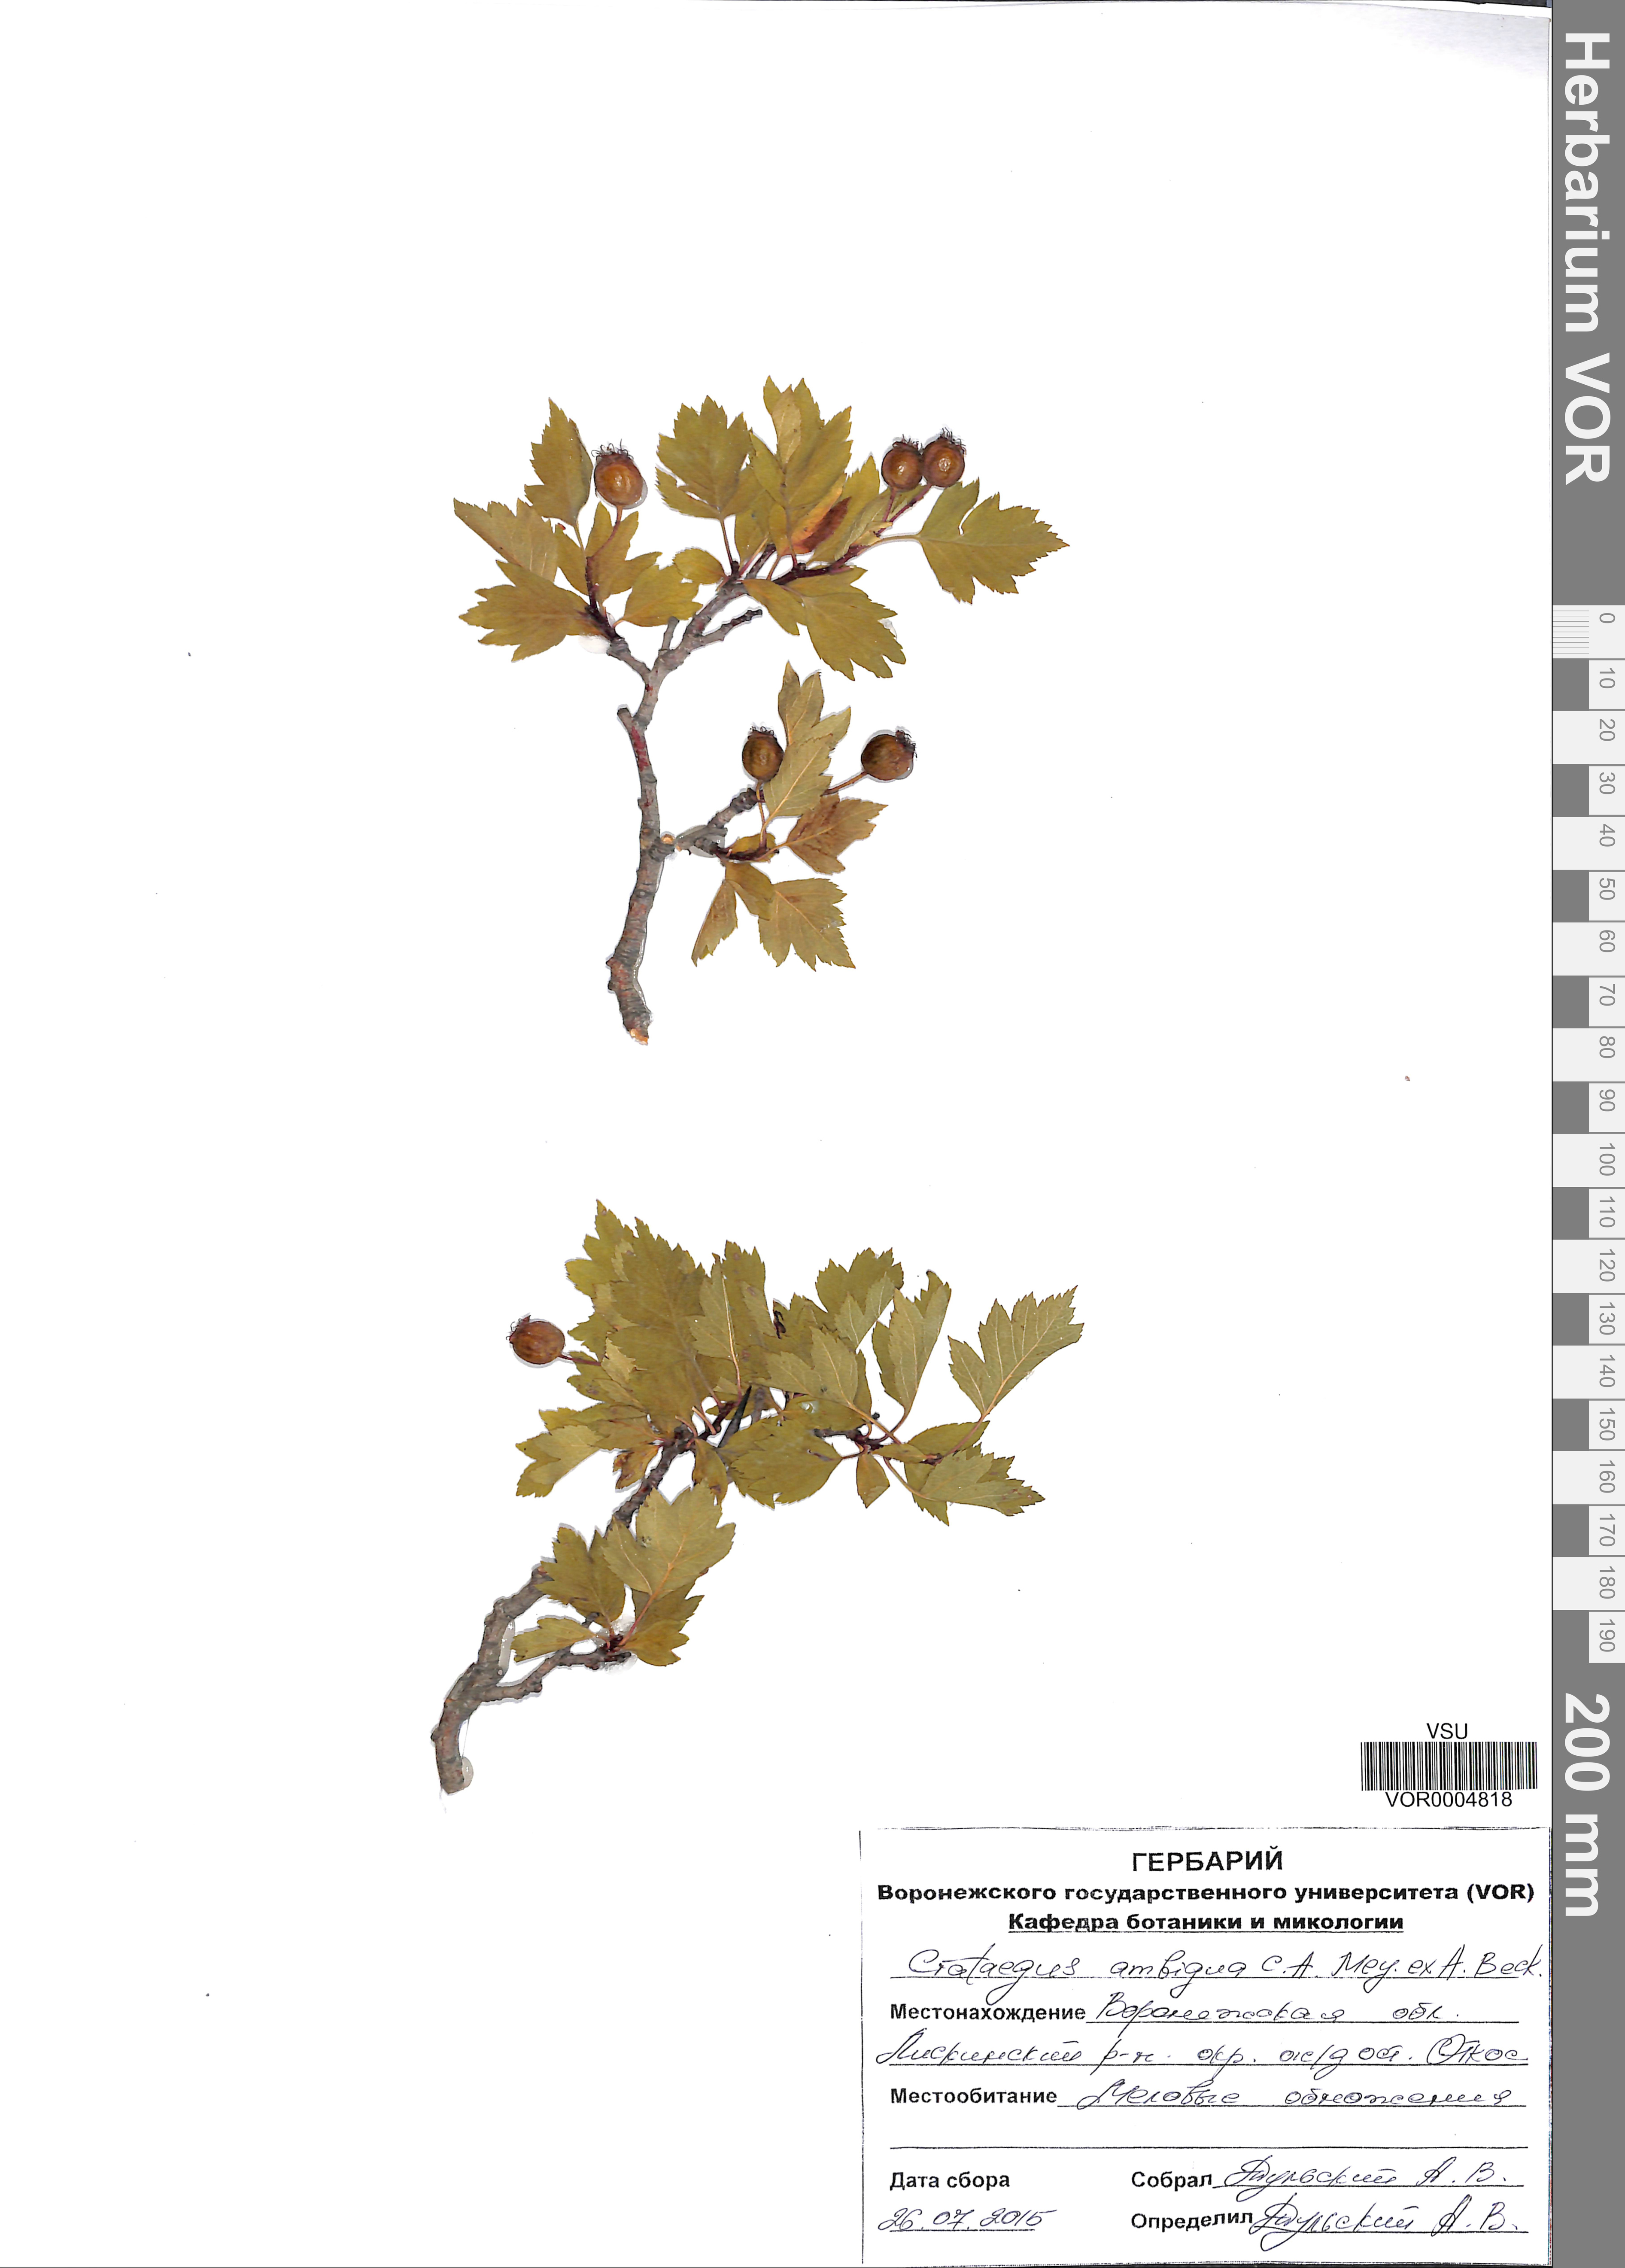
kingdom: Plantae
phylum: Tracheophyta
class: Magnoliopsida
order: Rosales
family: Rosaceae
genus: Crataegus
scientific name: Crataegus ambigua
